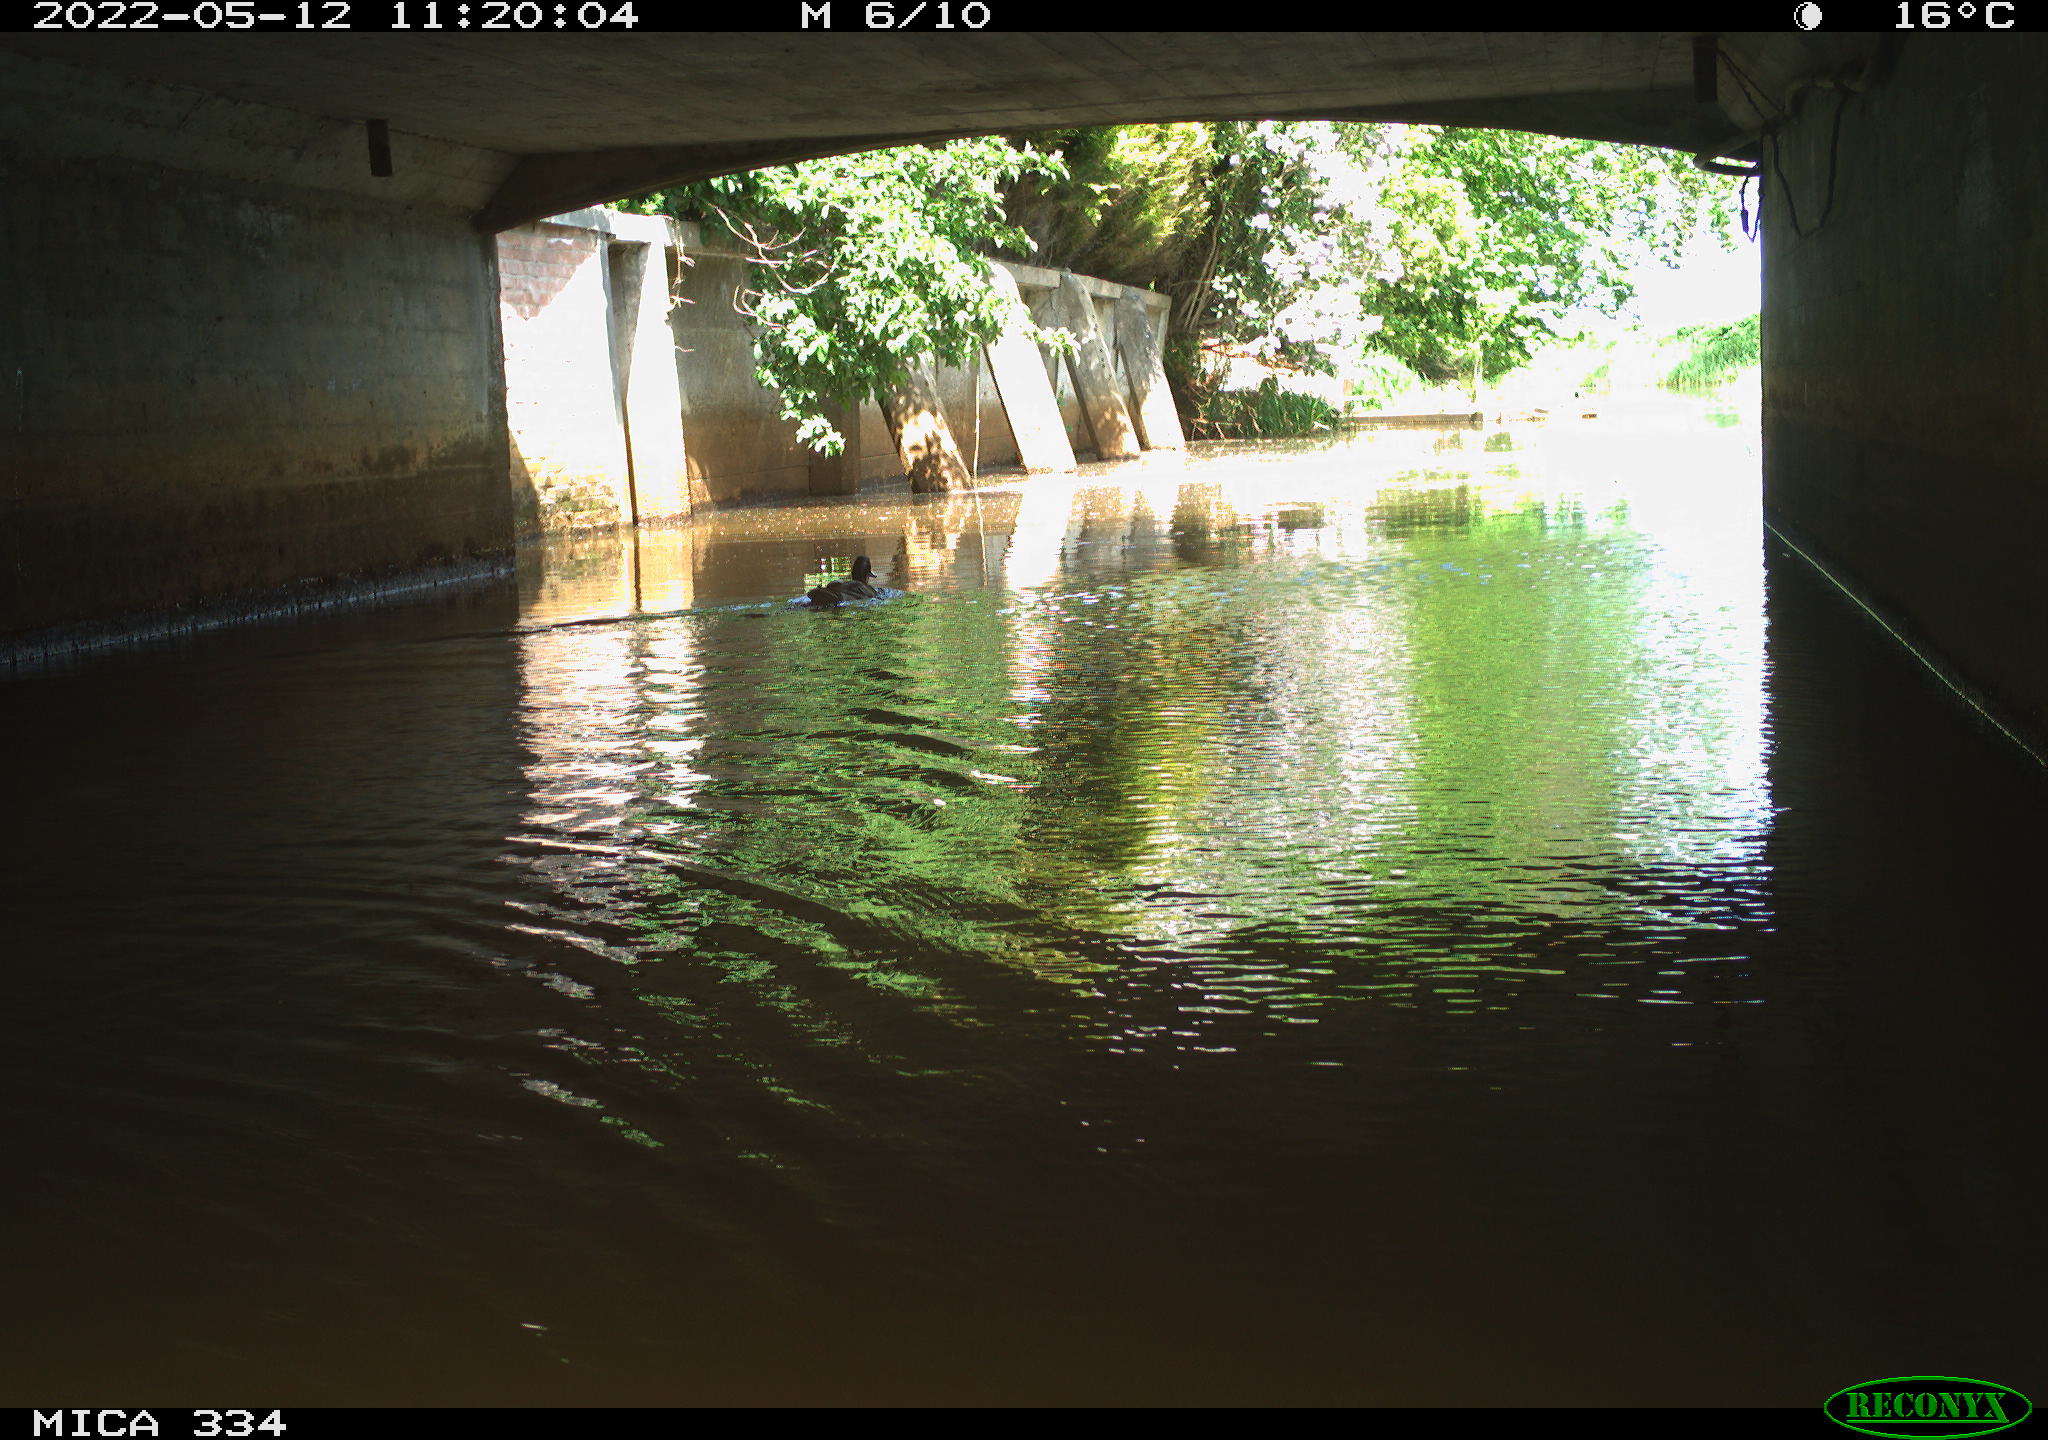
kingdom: Animalia
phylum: Chordata
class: Aves
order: Anseriformes
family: Anatidae
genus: Anas
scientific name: Anas platyrhynchos
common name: Mallard
